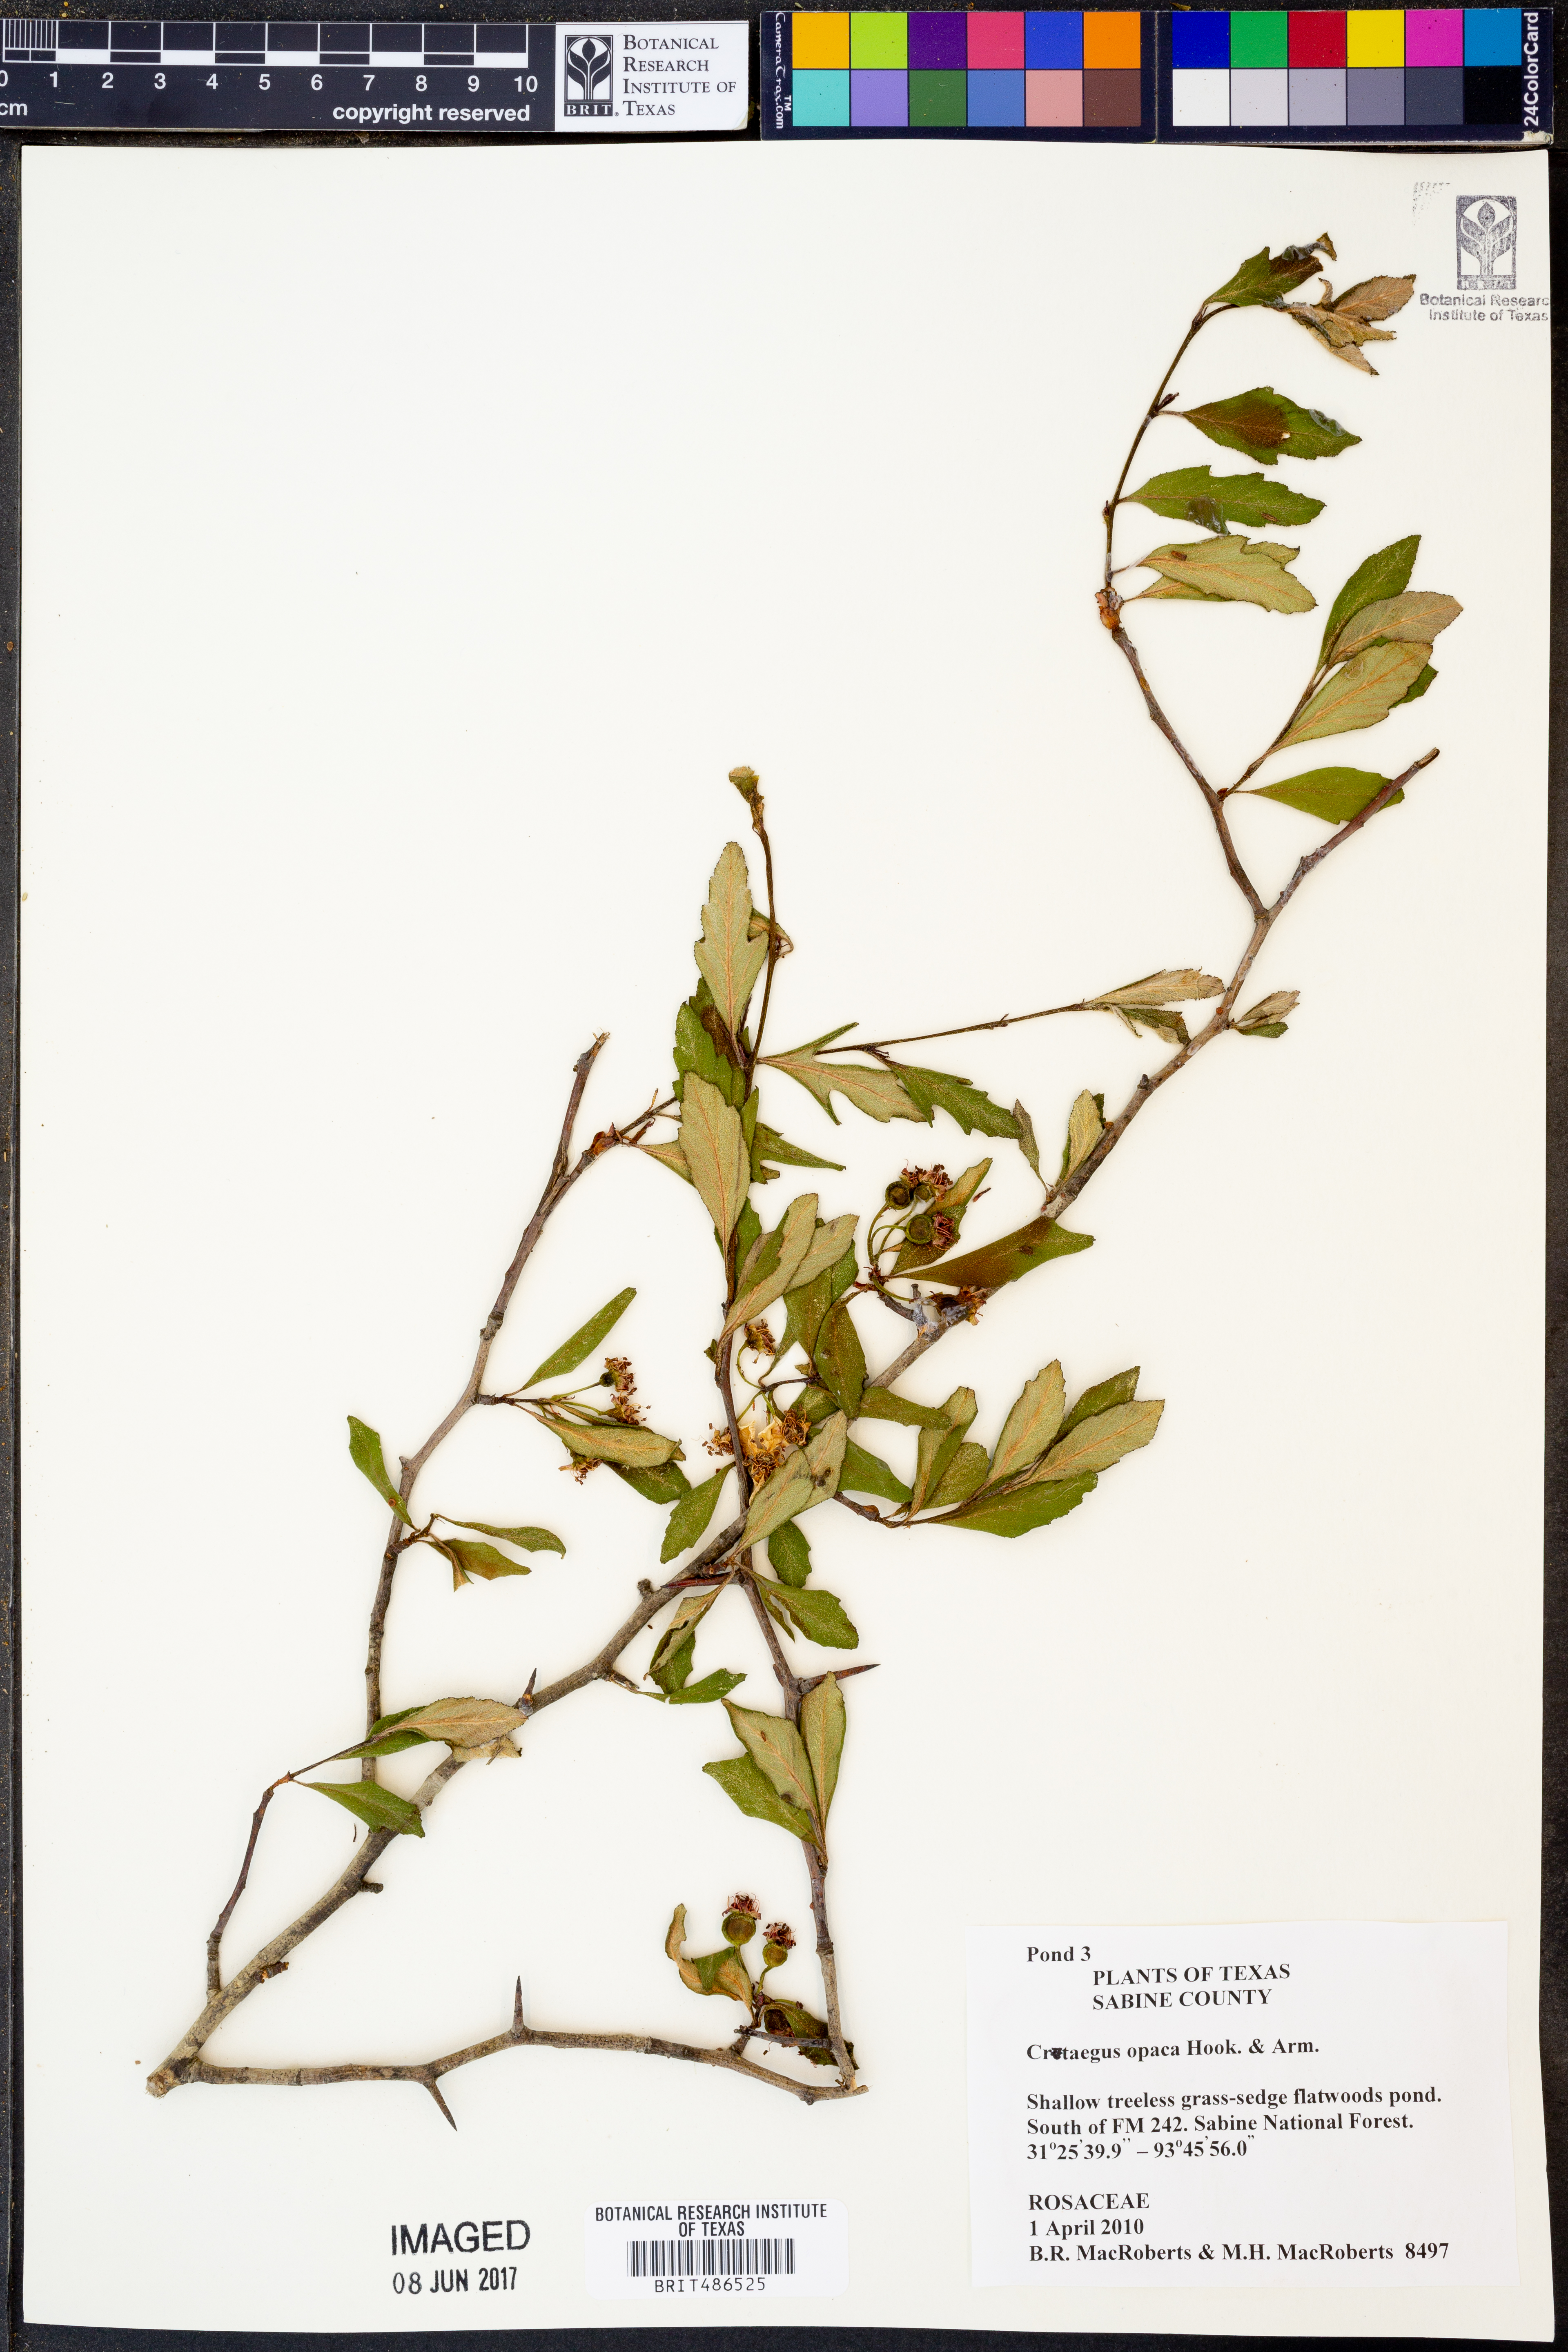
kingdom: Plantae
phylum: Tracheophyta
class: Magnoliopsida
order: Rosales
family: Rosaceae
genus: Crataegus
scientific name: Crataegus opaca
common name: Apple haw
